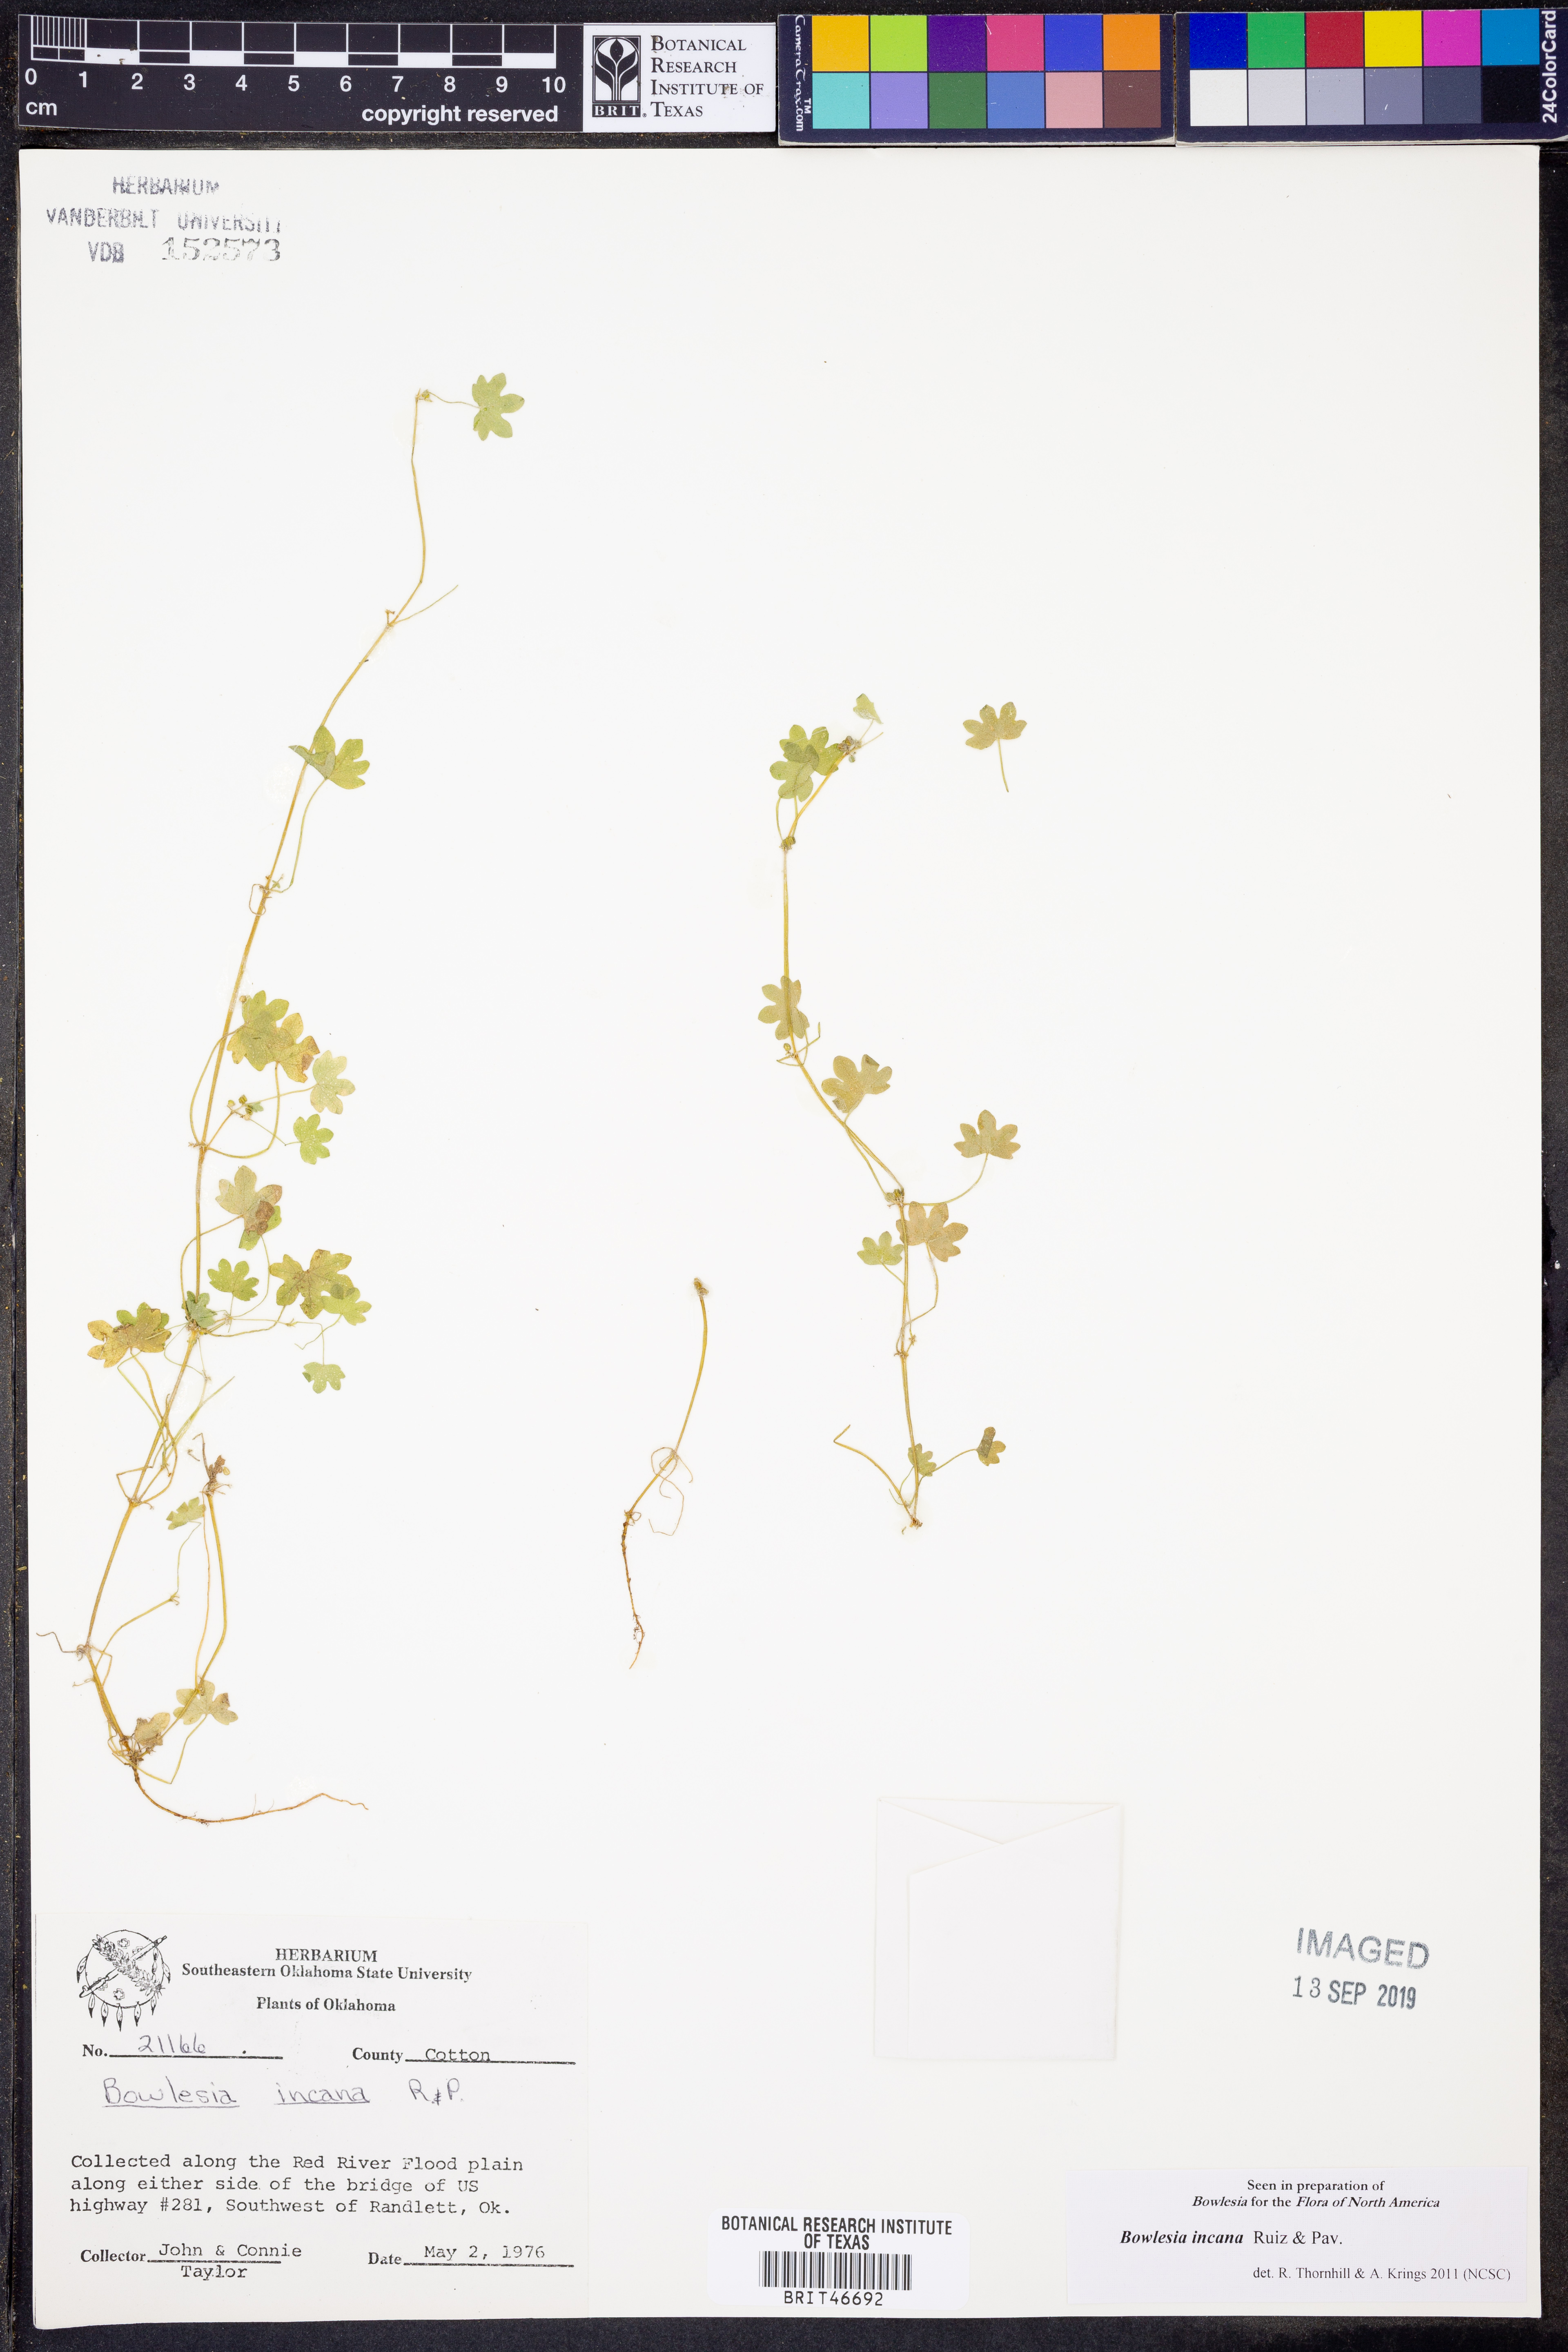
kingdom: Plantae
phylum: Tracheophyta
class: Magnoliopsida
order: Apiales
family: Apiaceae
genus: Bowlesia
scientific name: Bowlesia incana
